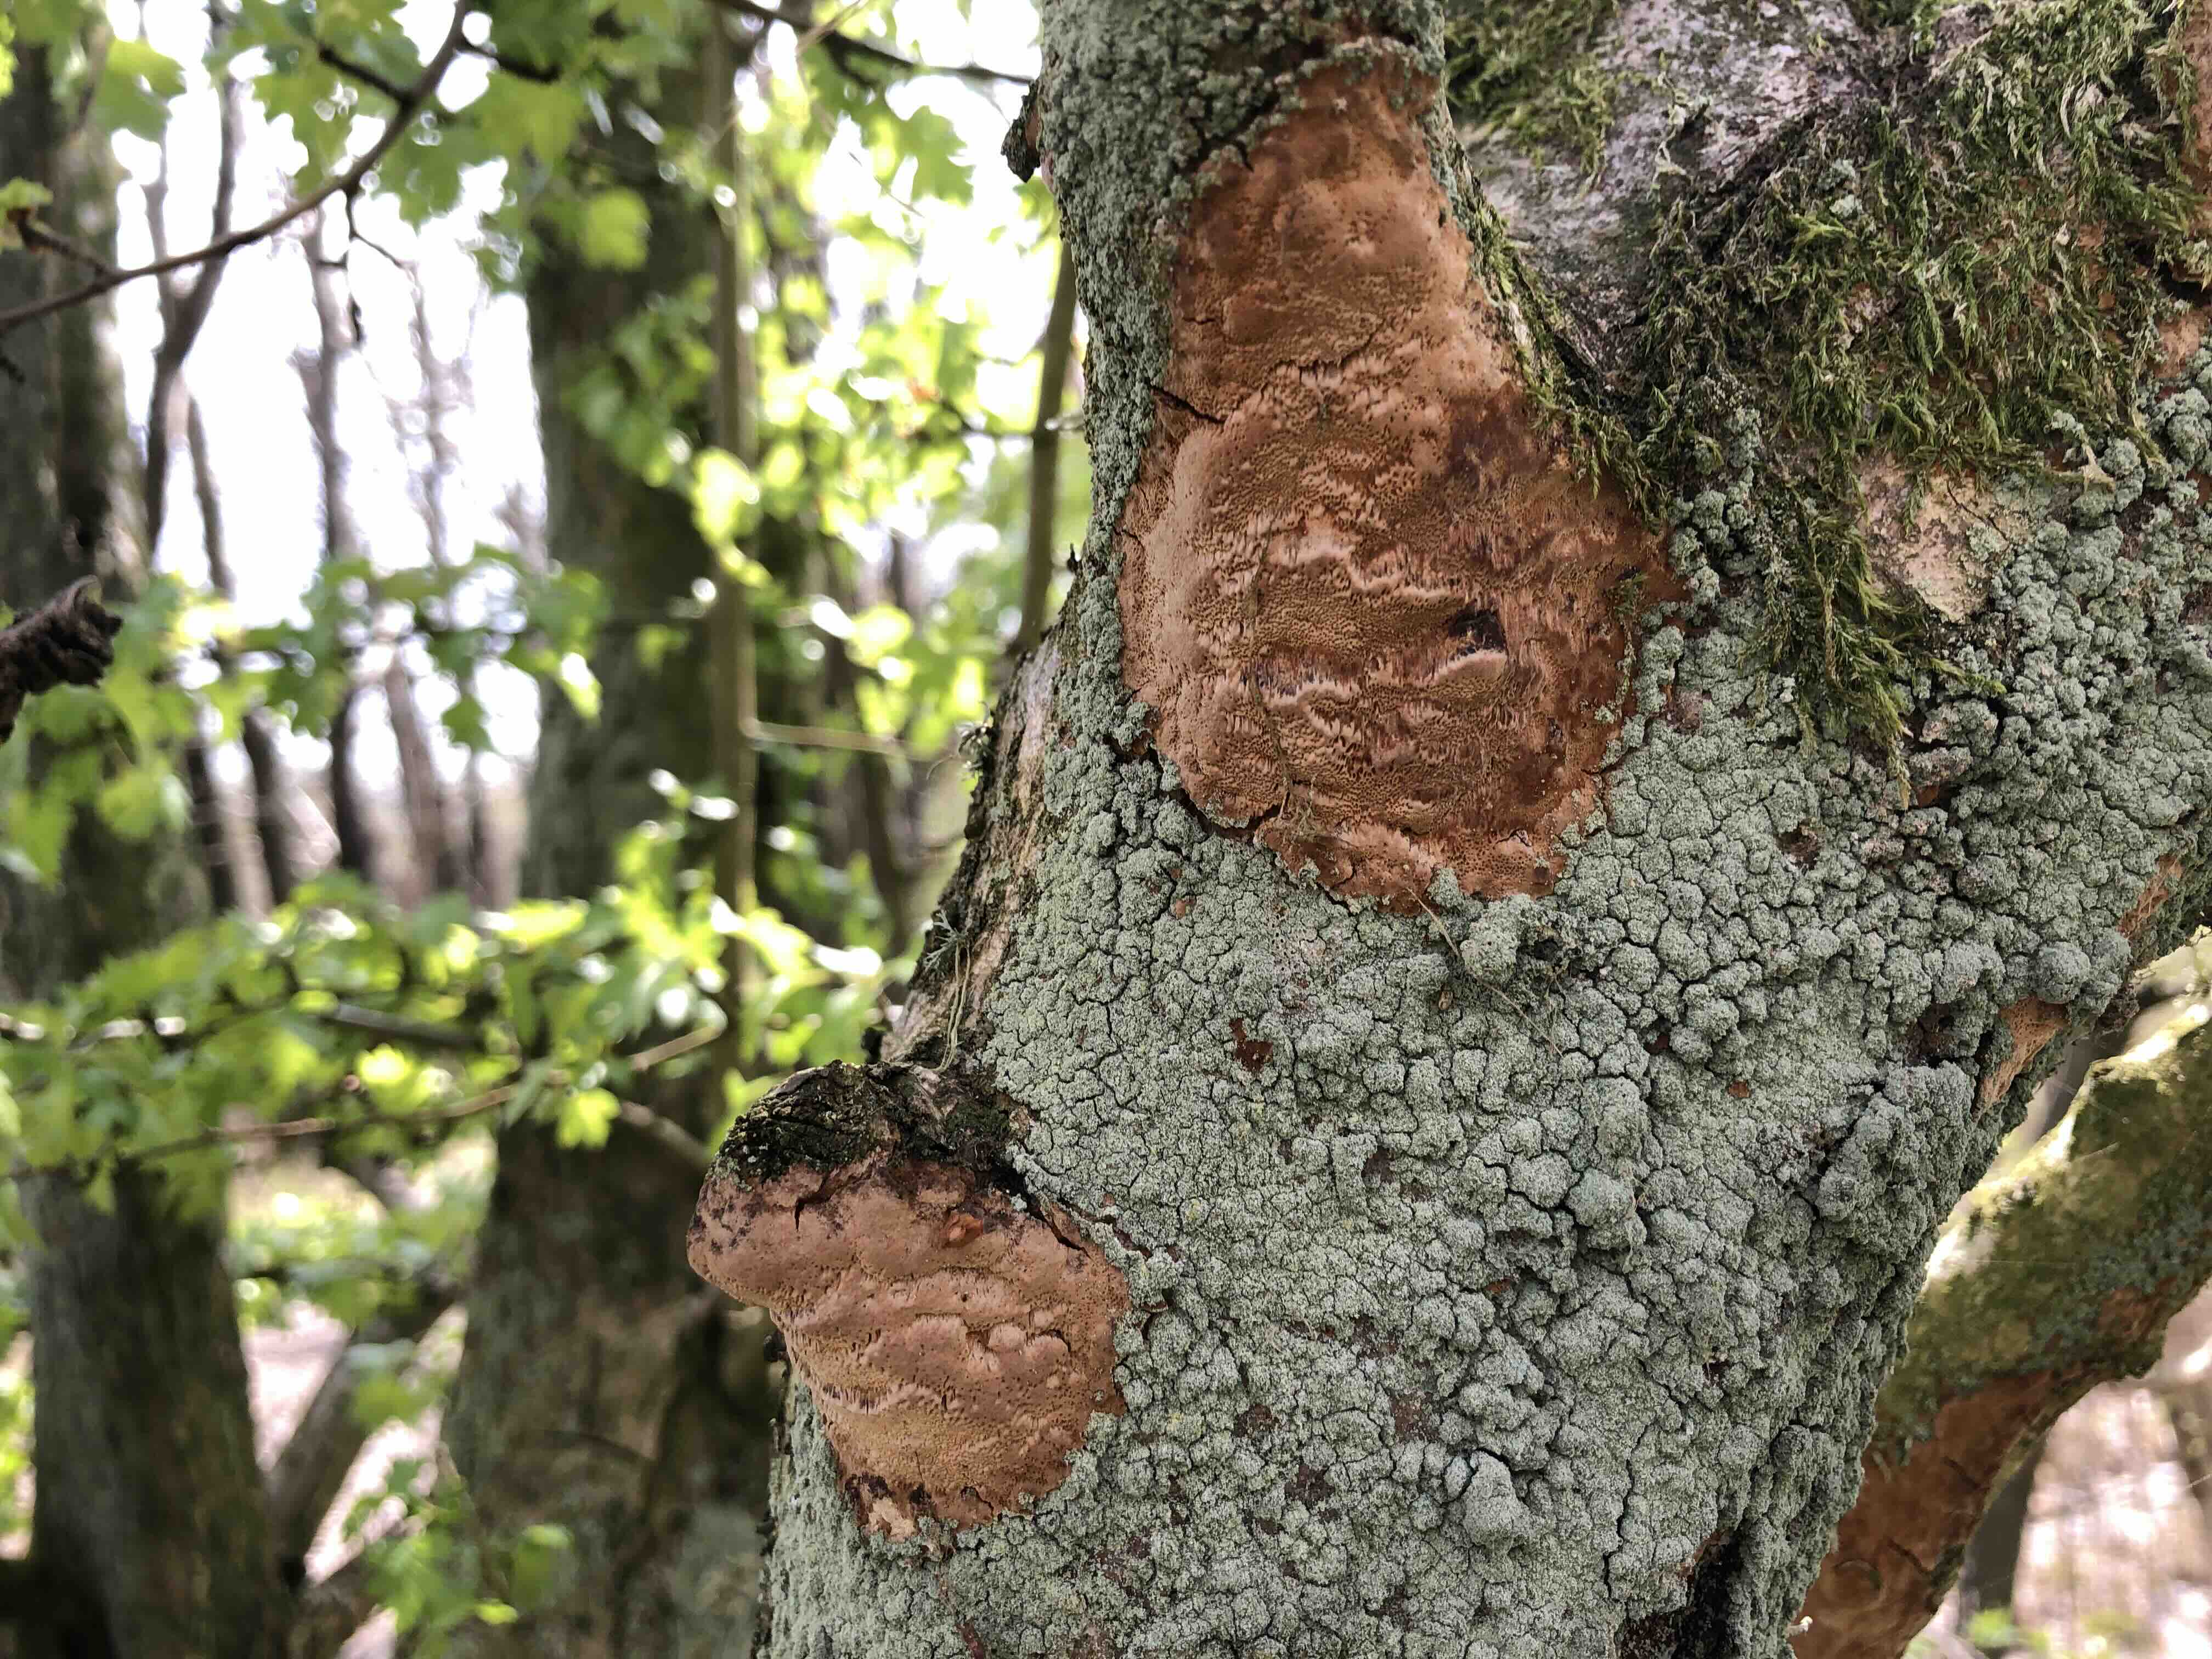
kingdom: Fungi
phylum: Basidiomycota
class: Agaricomycetes
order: Hymenochaetales
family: Hymenochaetaceae
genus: Fuscoporia
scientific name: Fuscoporia ferrea
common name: skorpe-ildporesvamp
